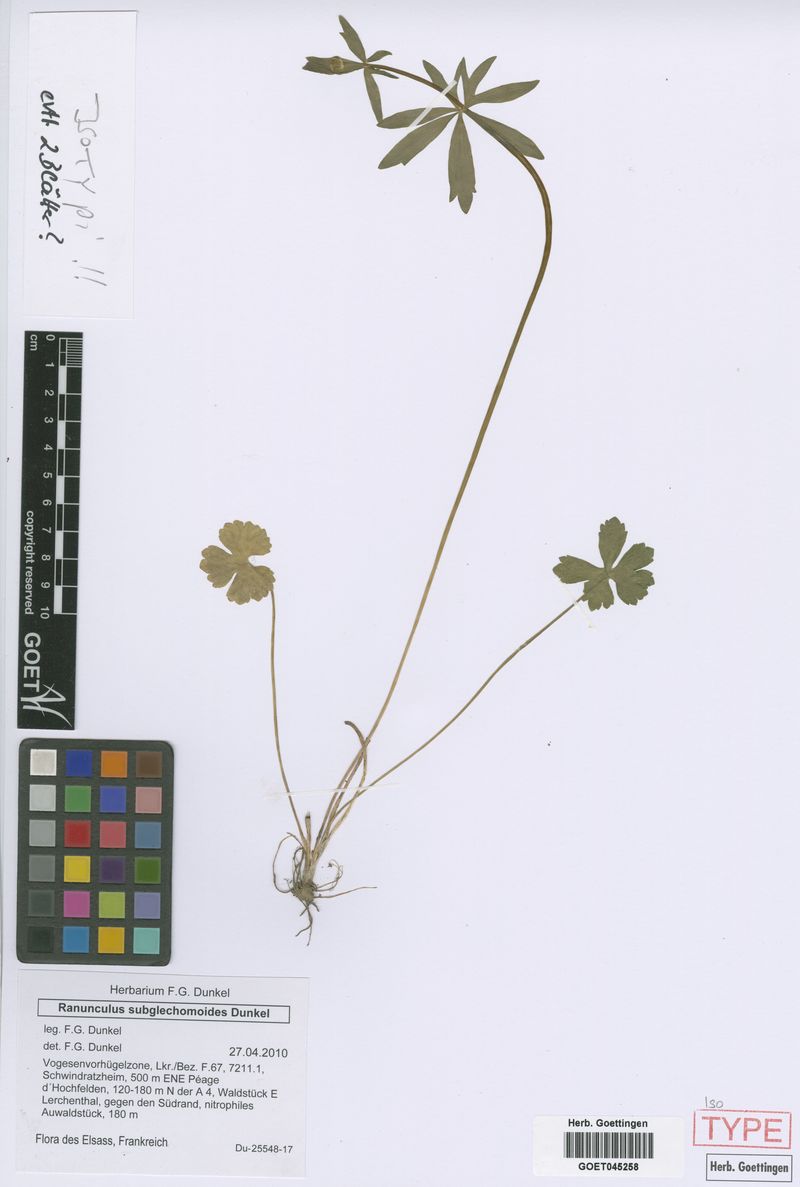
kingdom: Plantae
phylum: Tracheophyta
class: Magnoliopsida
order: Ranunculales
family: Ranunculaceae
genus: Ranunculus
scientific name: Ranunculus subglechomoides
